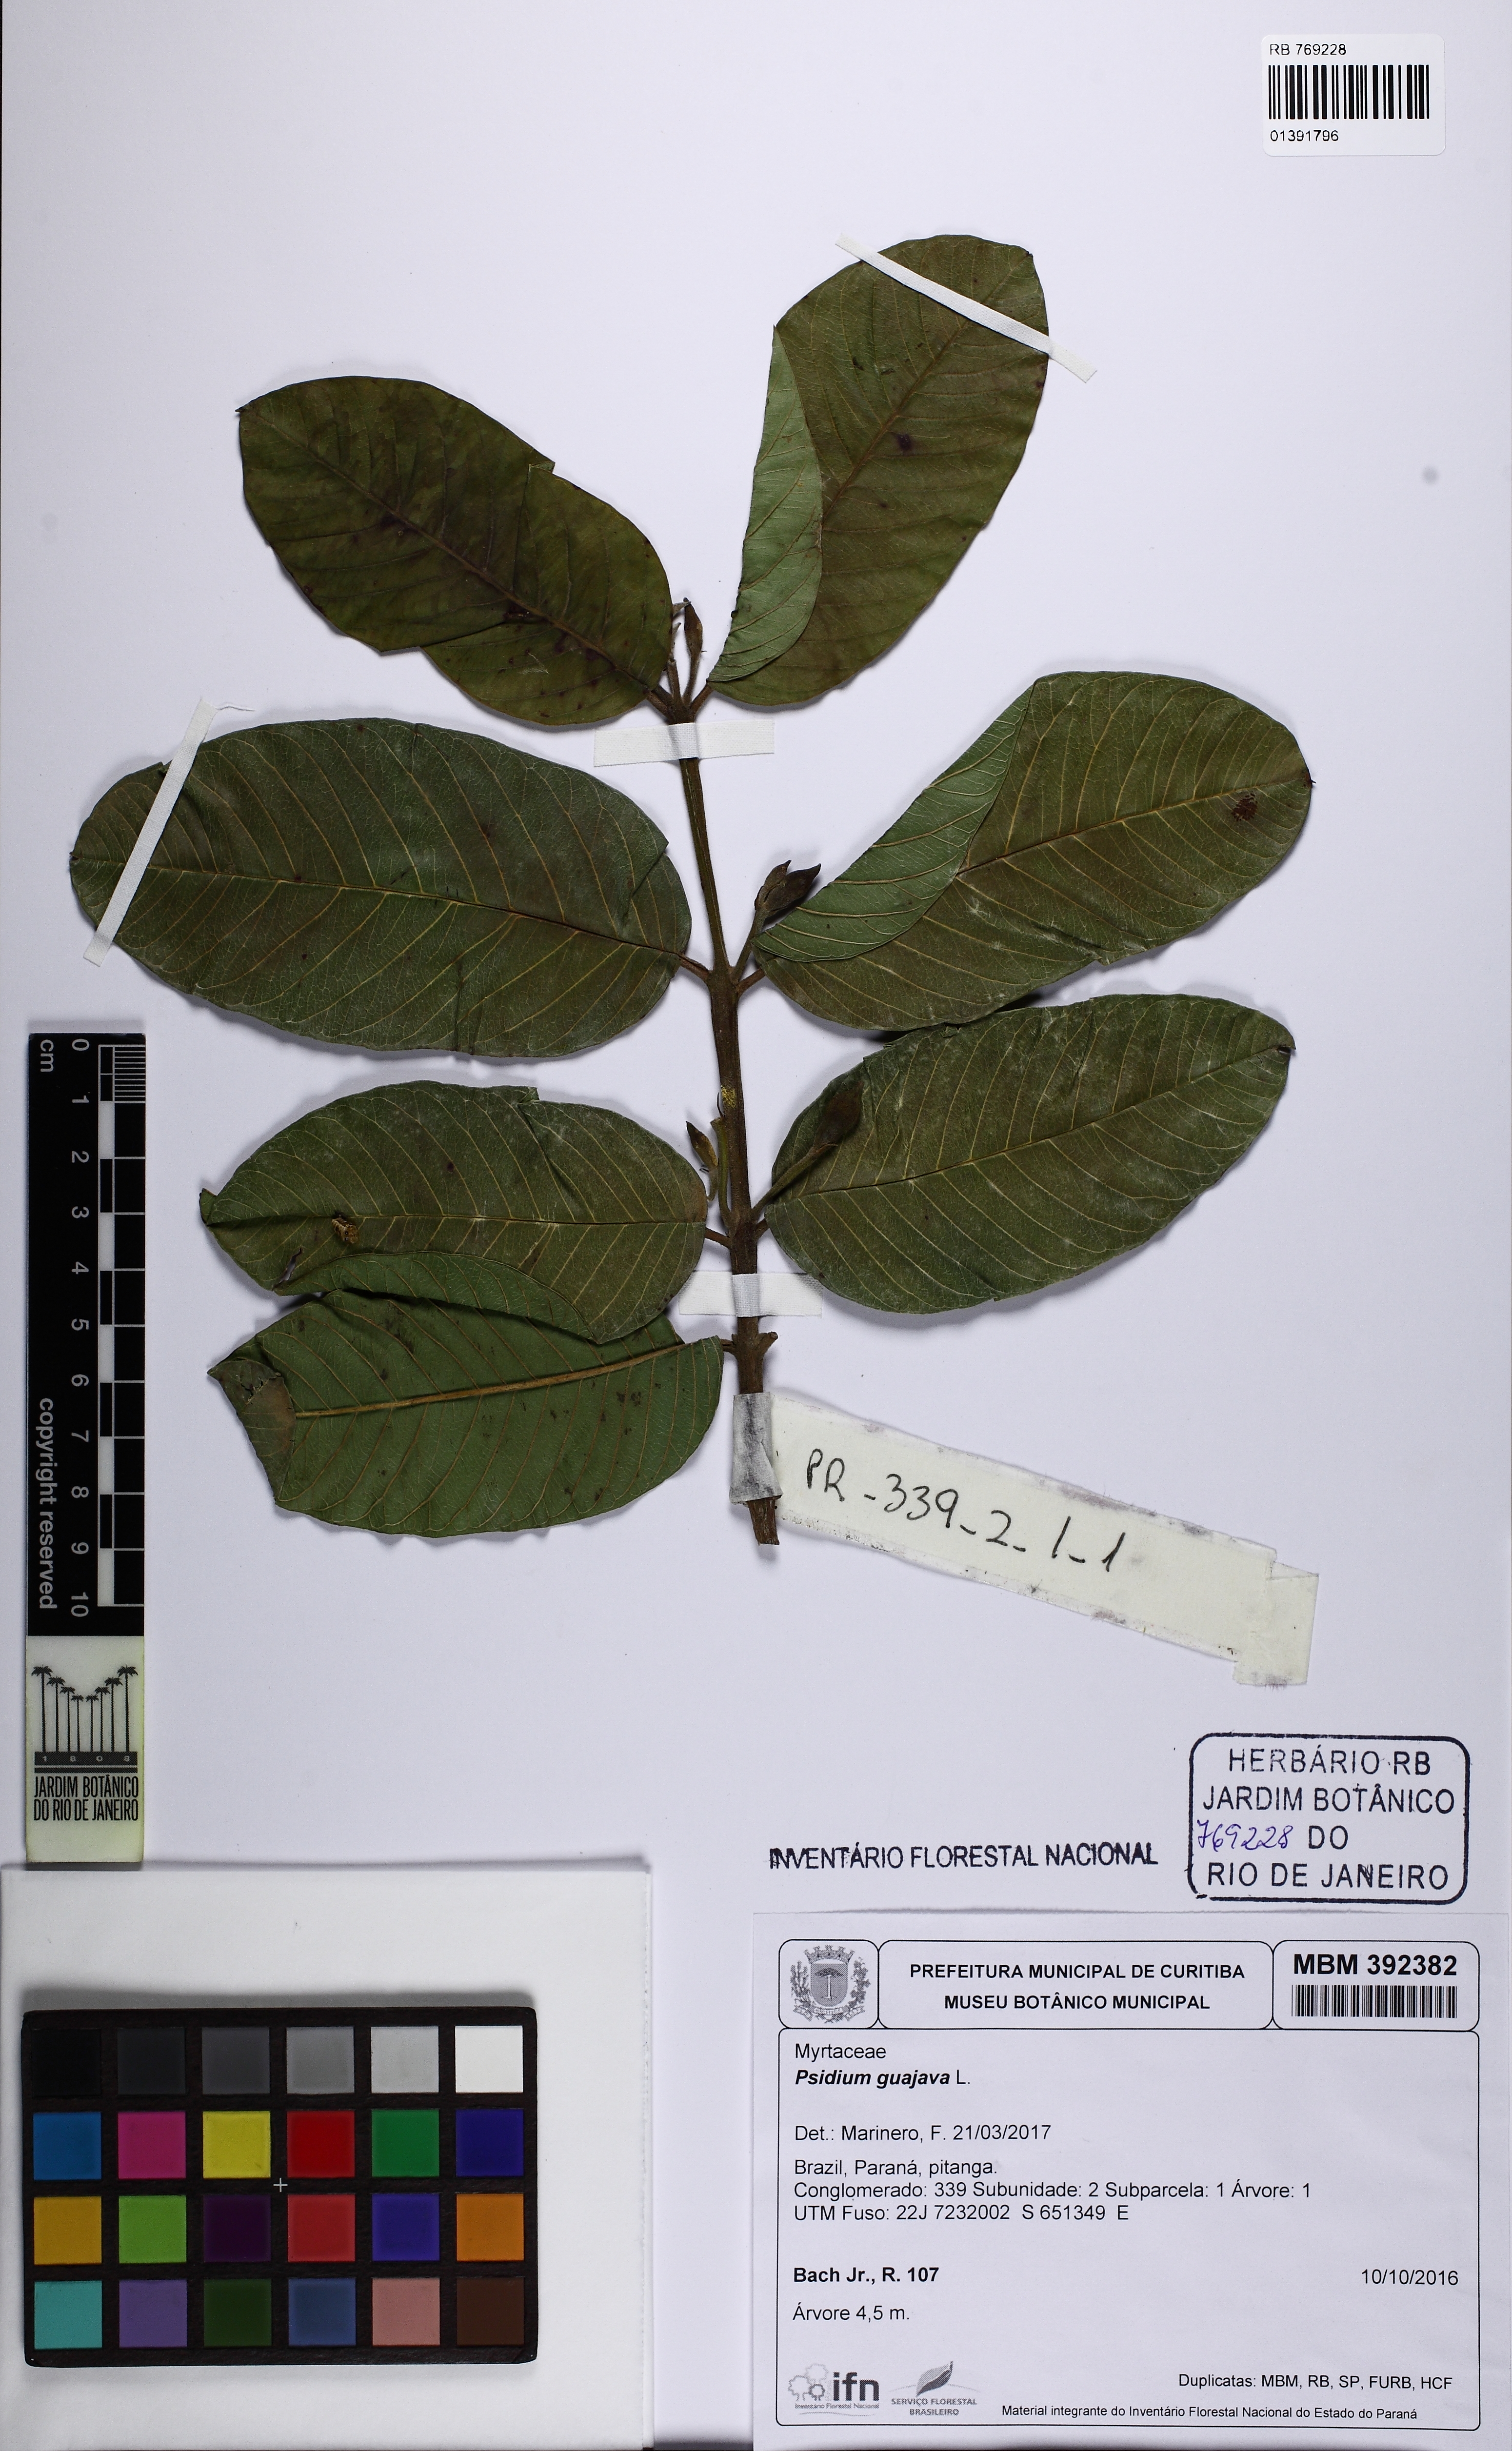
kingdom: Plantae
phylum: Tracheophyta
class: Magnoliopsida
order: Myrtales
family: Myrtaceae
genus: Psidium
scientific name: Psidium guajava
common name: Guava
